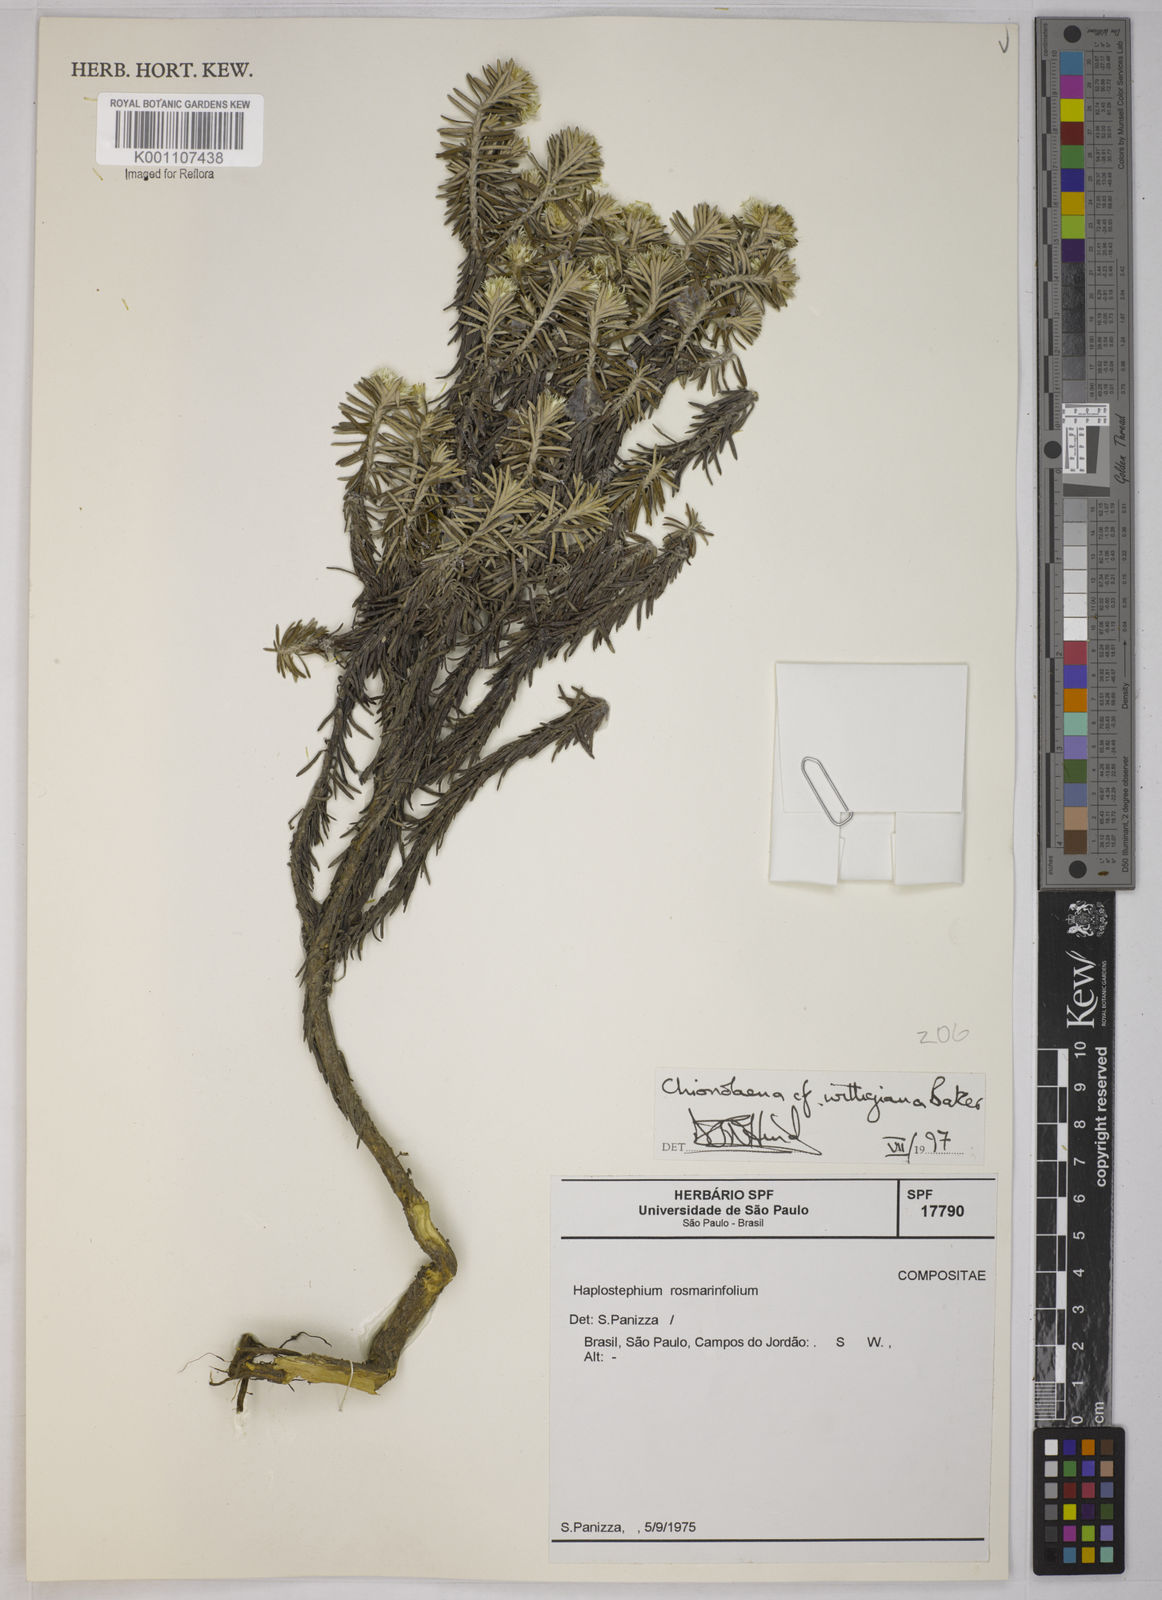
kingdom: Plantae
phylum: Tracheophyta
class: Magnoliopsida
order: Asterales
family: Asteraceae
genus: Chionolaena
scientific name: Chionolaena wittigiana
